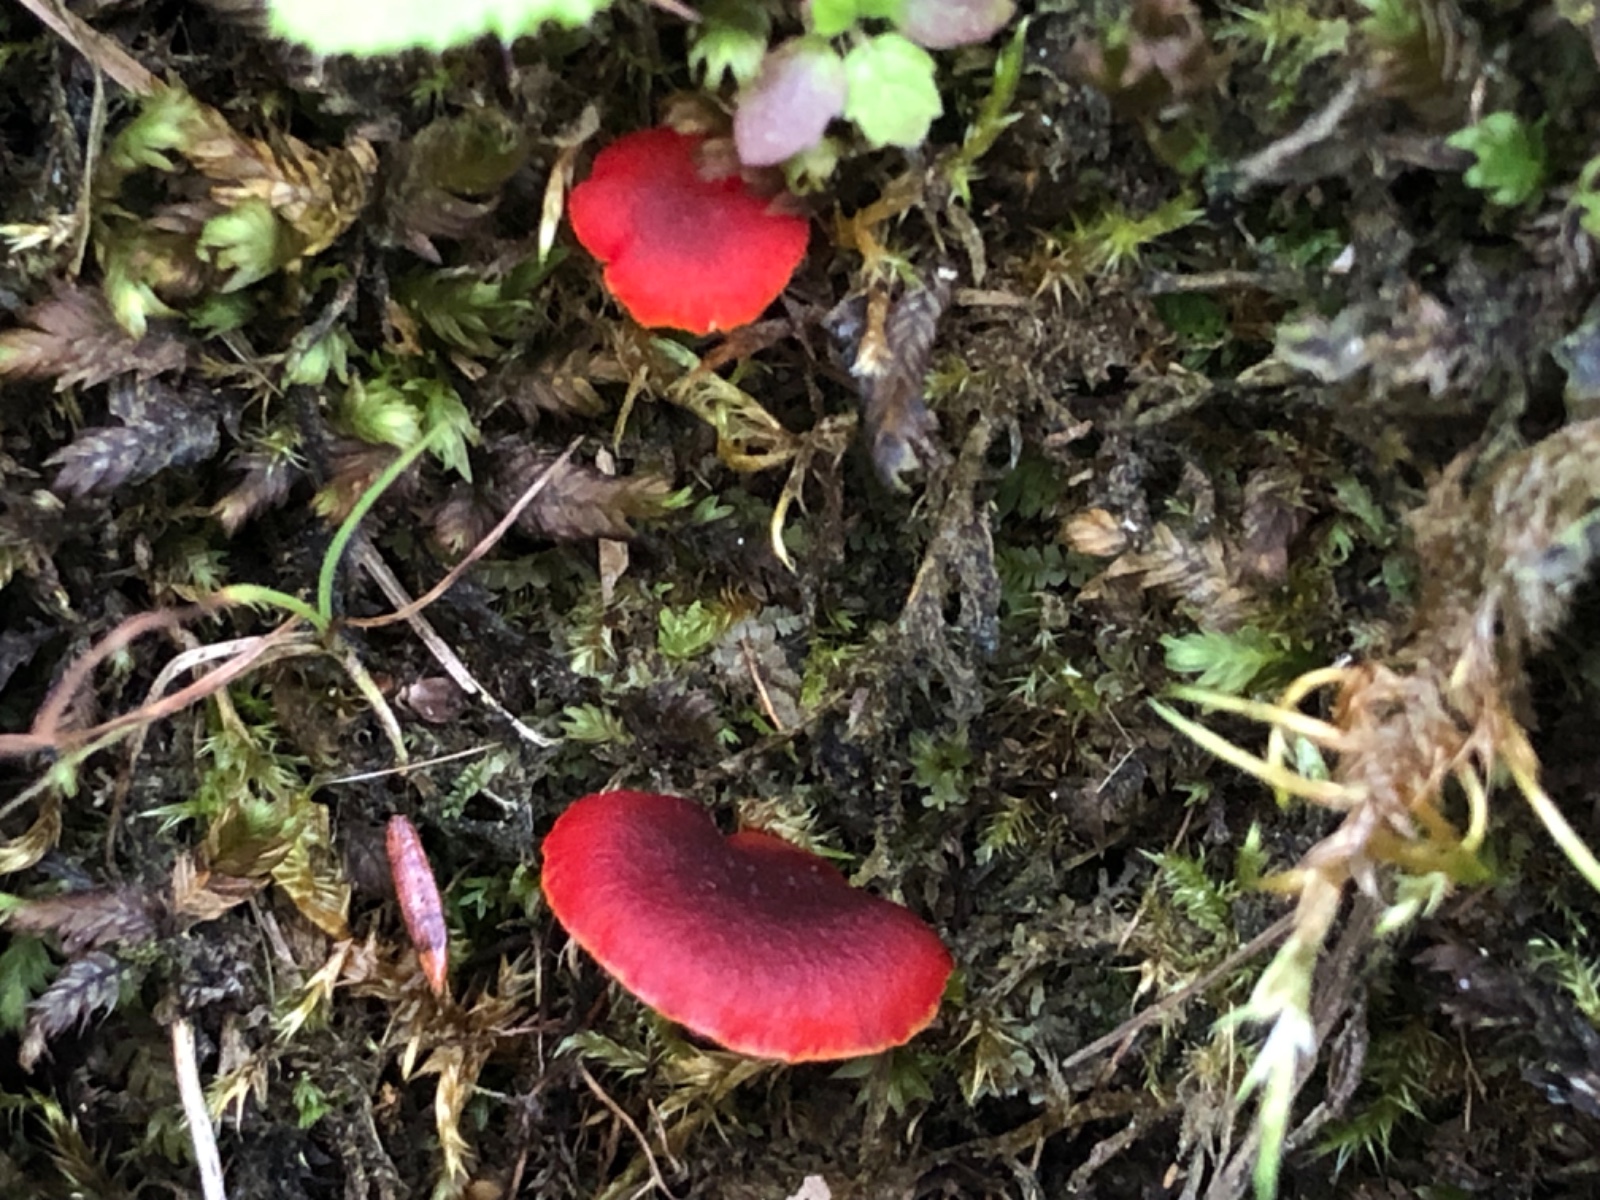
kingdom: Fungi
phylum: Basidiomycota
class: Agaricomycetes
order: Agaricales
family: Hygrophoraceae
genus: Hygrocybe
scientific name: Hygrocybe phaeococcinea
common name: sortdugget vokshat
